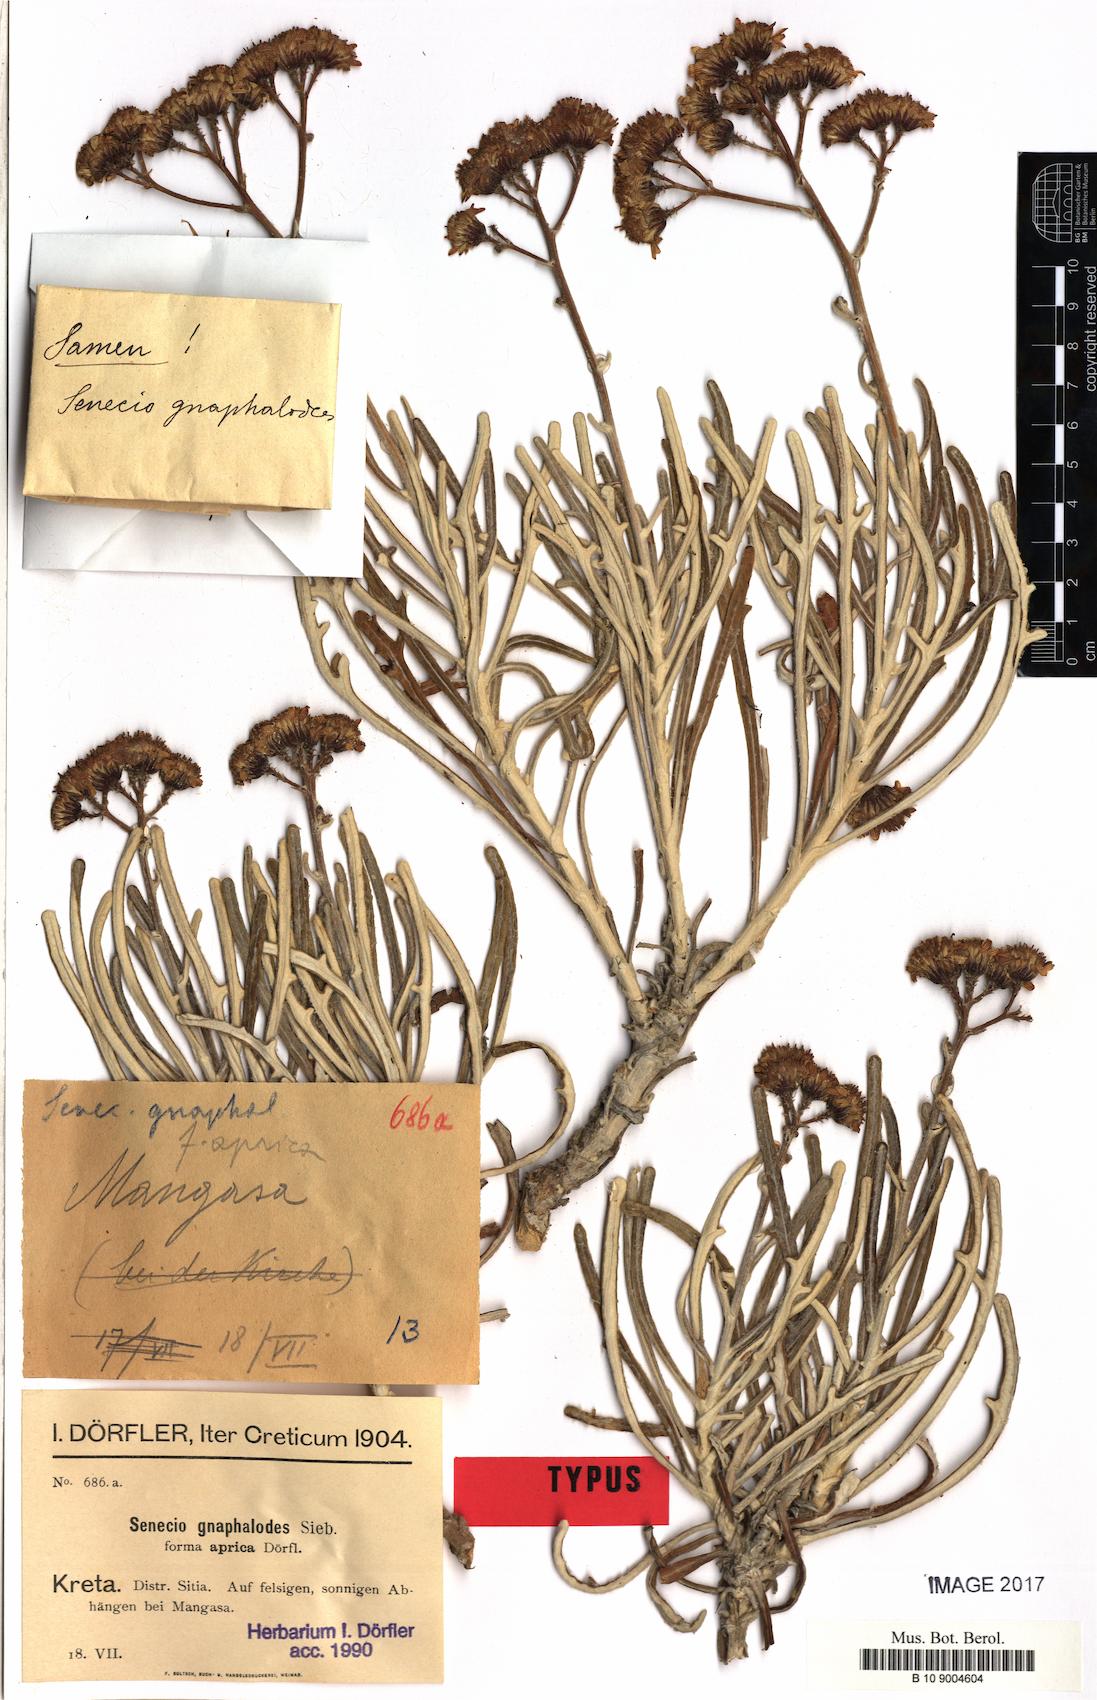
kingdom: Plantae
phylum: Tracheophyta
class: Magnoliopsida
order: Asterales
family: Asteraceae
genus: Jacobaea
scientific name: Jacobaea gnaphalioides
